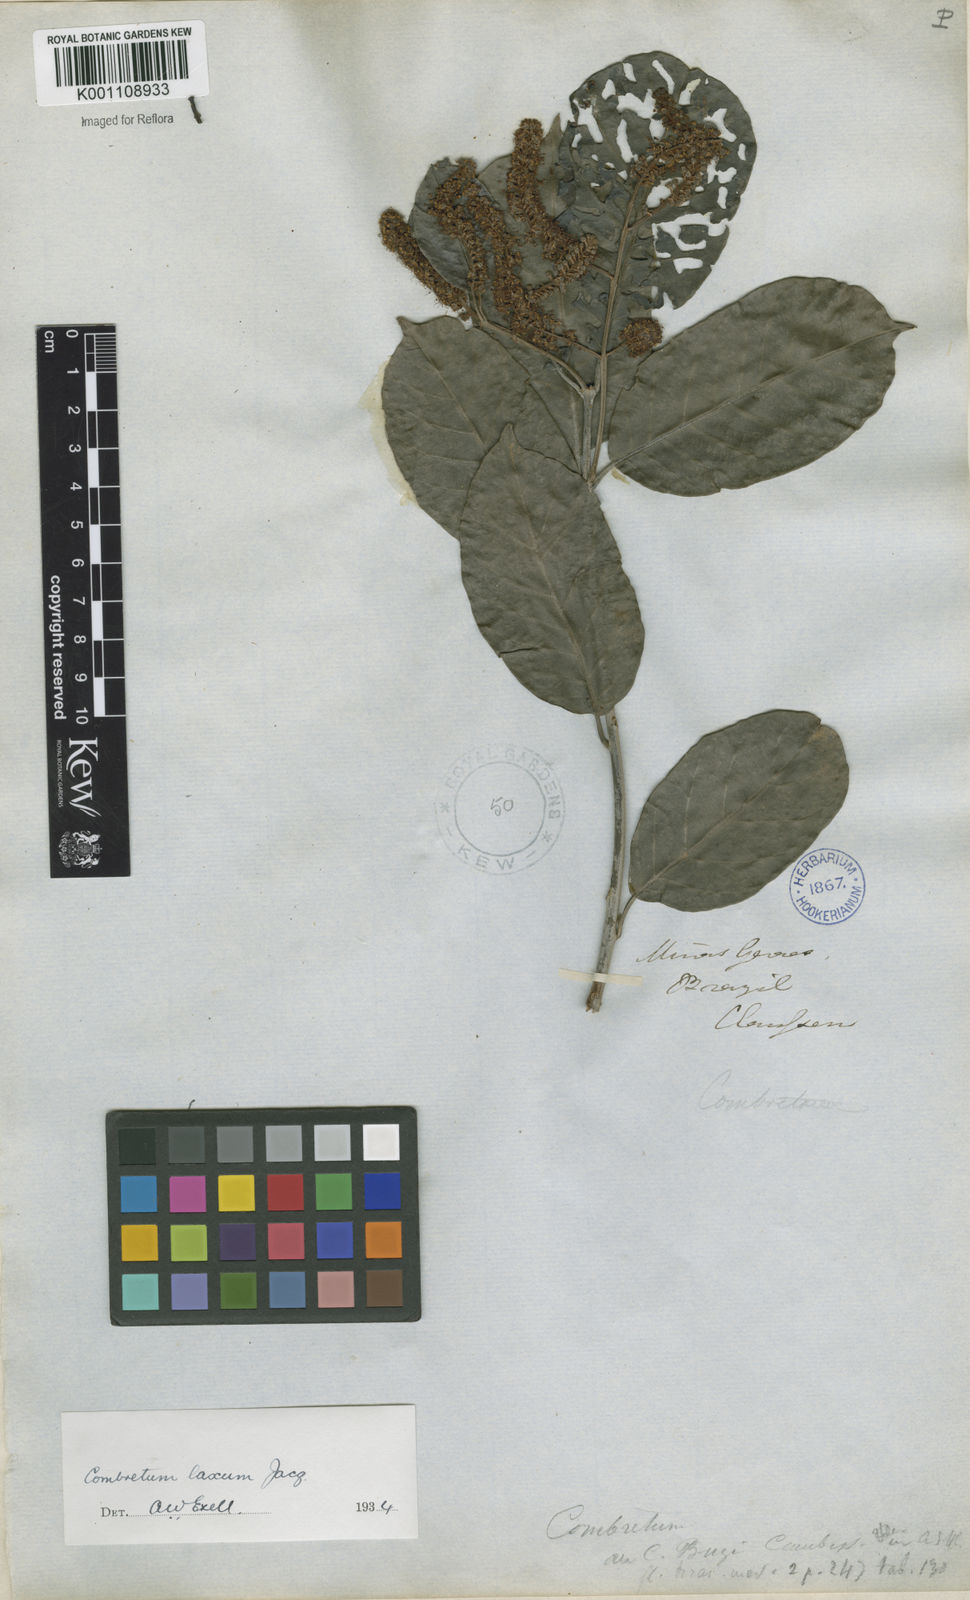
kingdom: Plantae
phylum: Tracheophyta
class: Magnoliopsida
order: Myrtales
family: Combretaceae
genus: Combretum
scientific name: Combretum laxum
